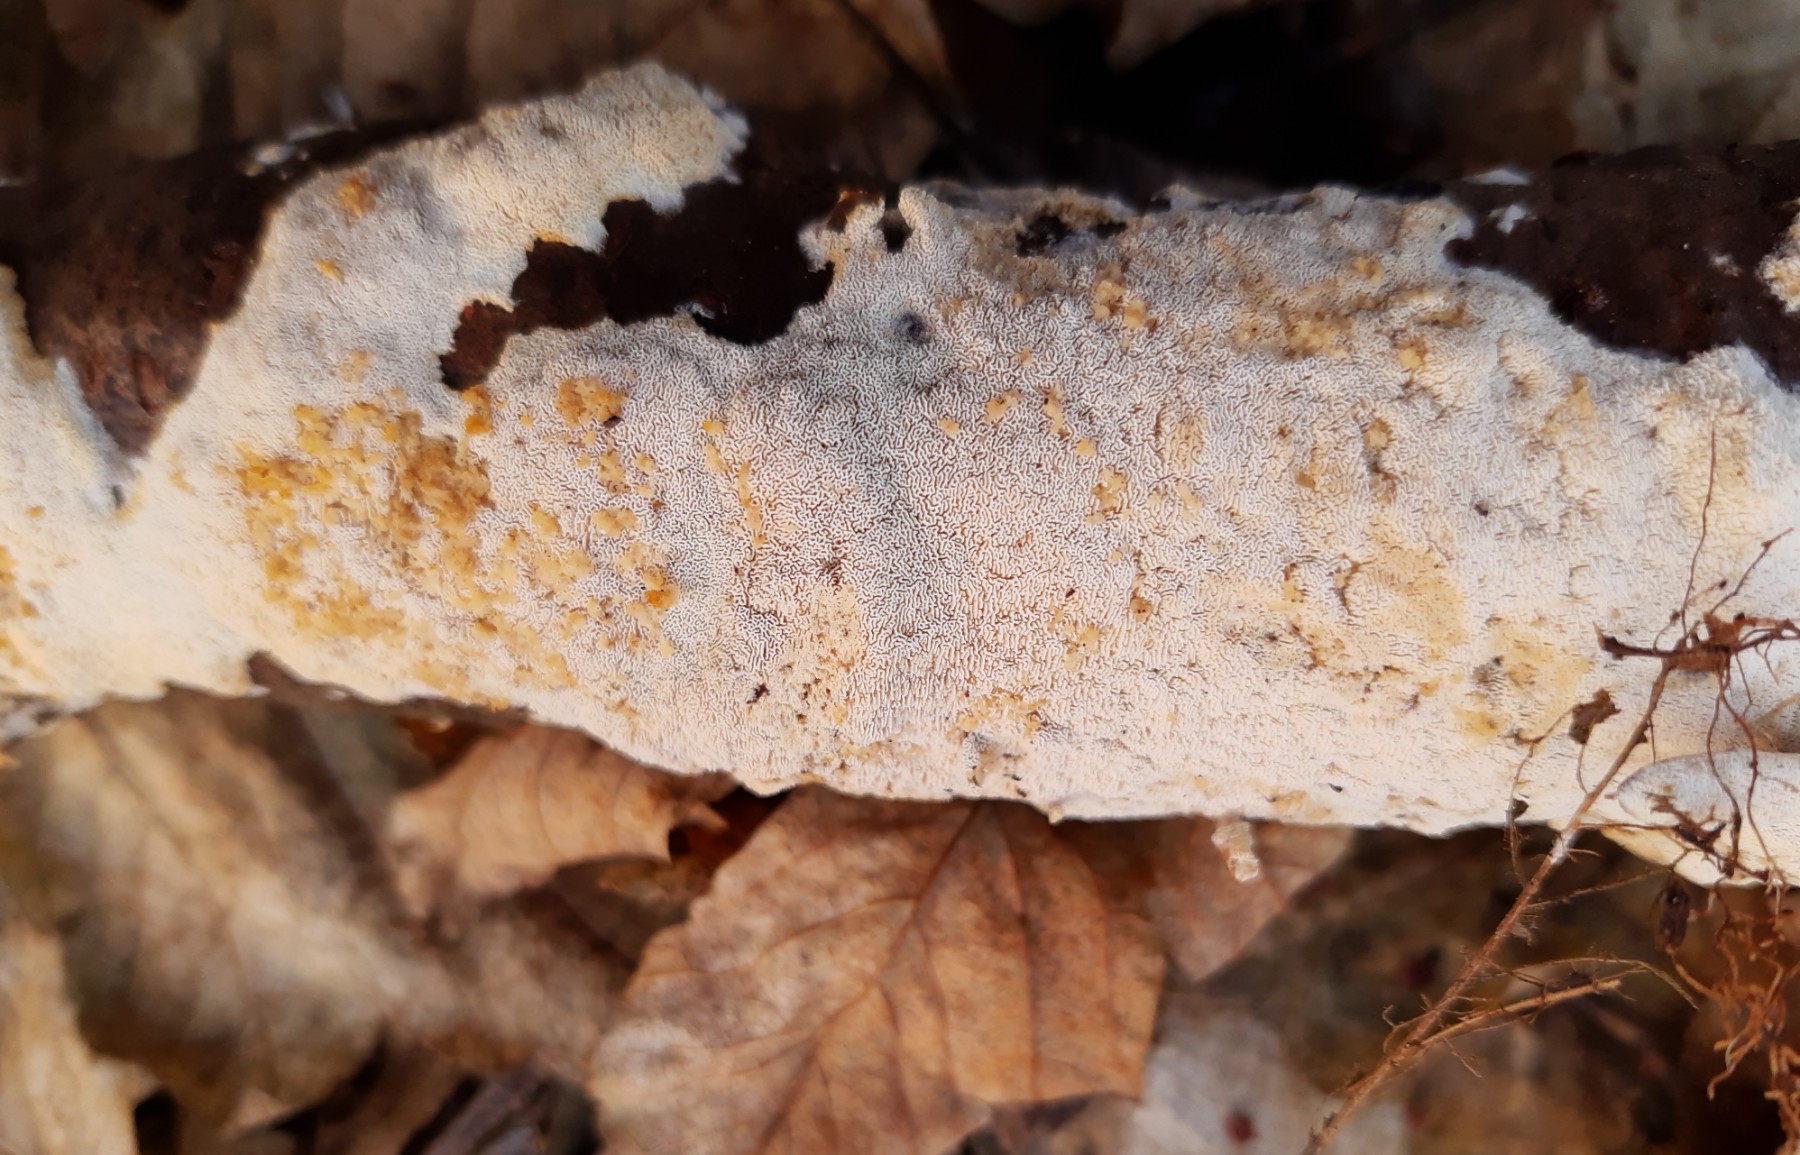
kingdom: Fungi
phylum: Basidiomycota
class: Agaricomycetes
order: Hymenochaetales
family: Schizoporaceae
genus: Xylodon
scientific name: Xylodon flaviporus
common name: gulporet tandsvamp
